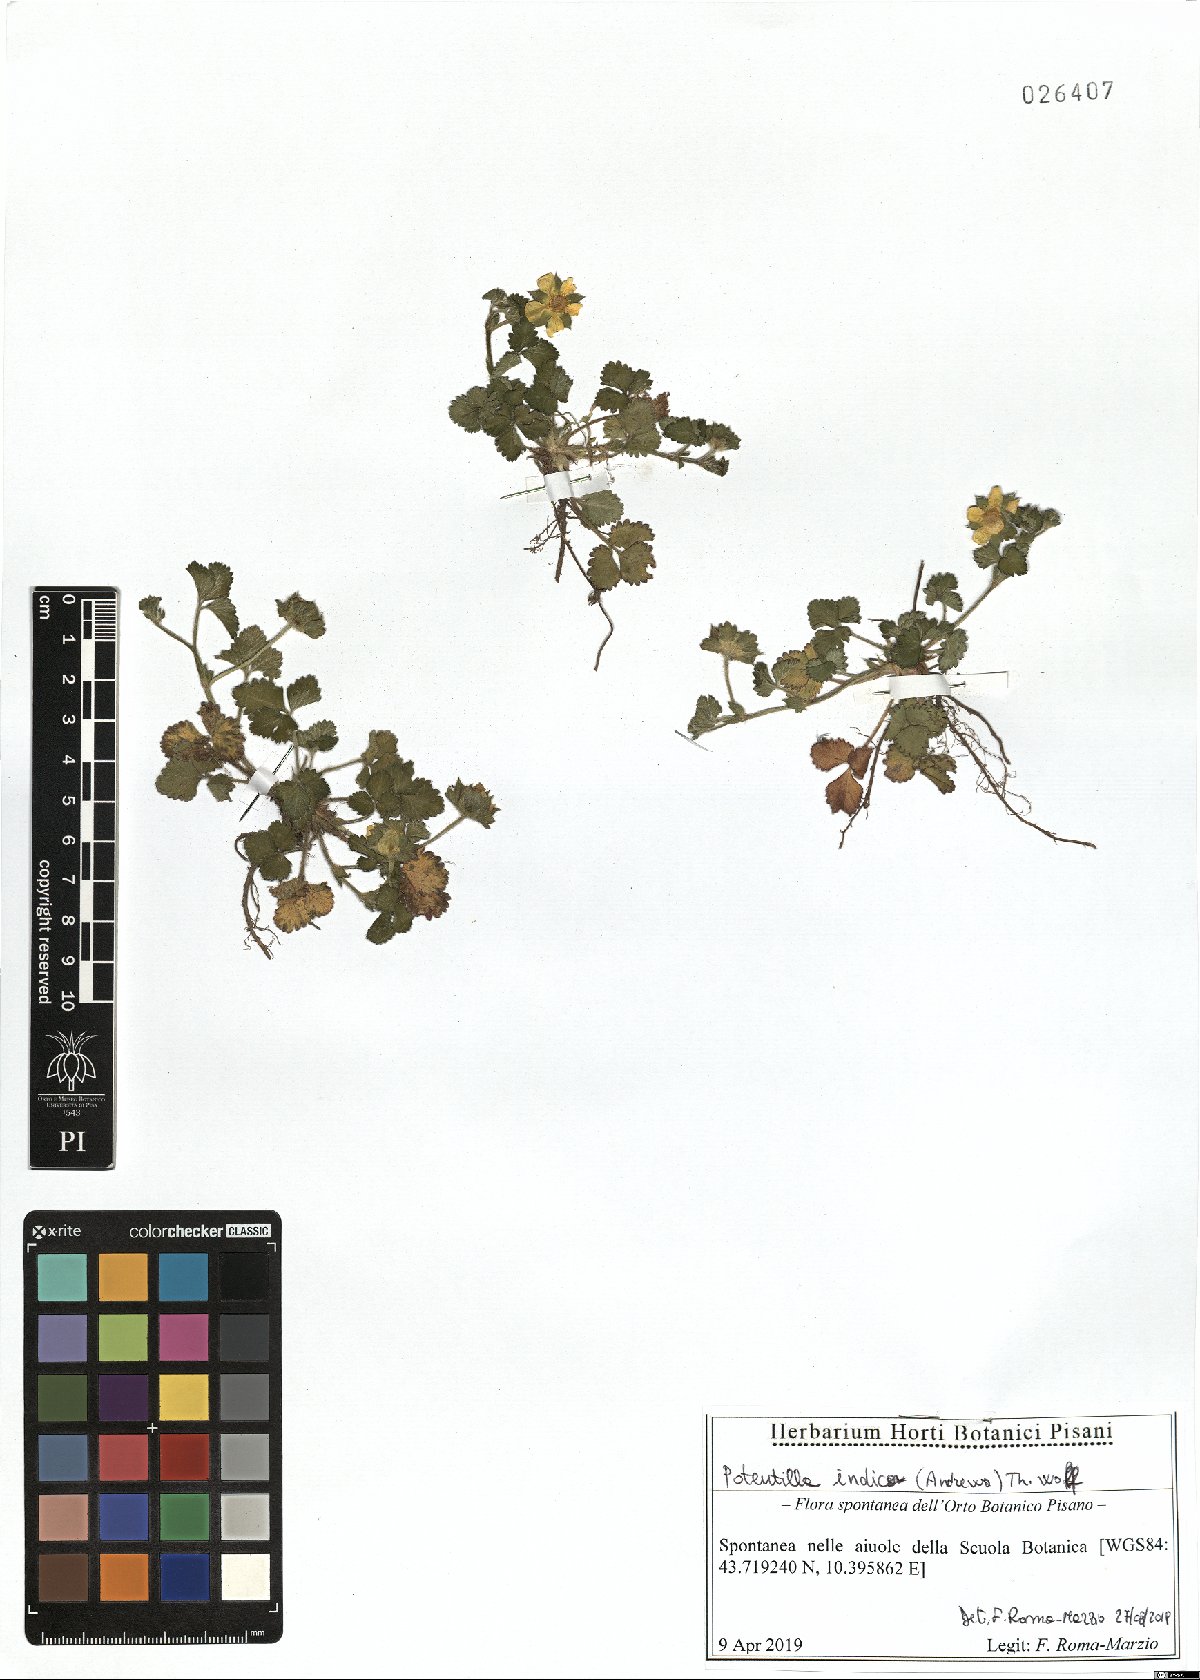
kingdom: Plantae
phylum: Tracheophyta
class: Magnoliopsida
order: Rosales
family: Rosaceae
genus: Potentilla
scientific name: Potentilla indica
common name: Yellow-flowered strawberry
